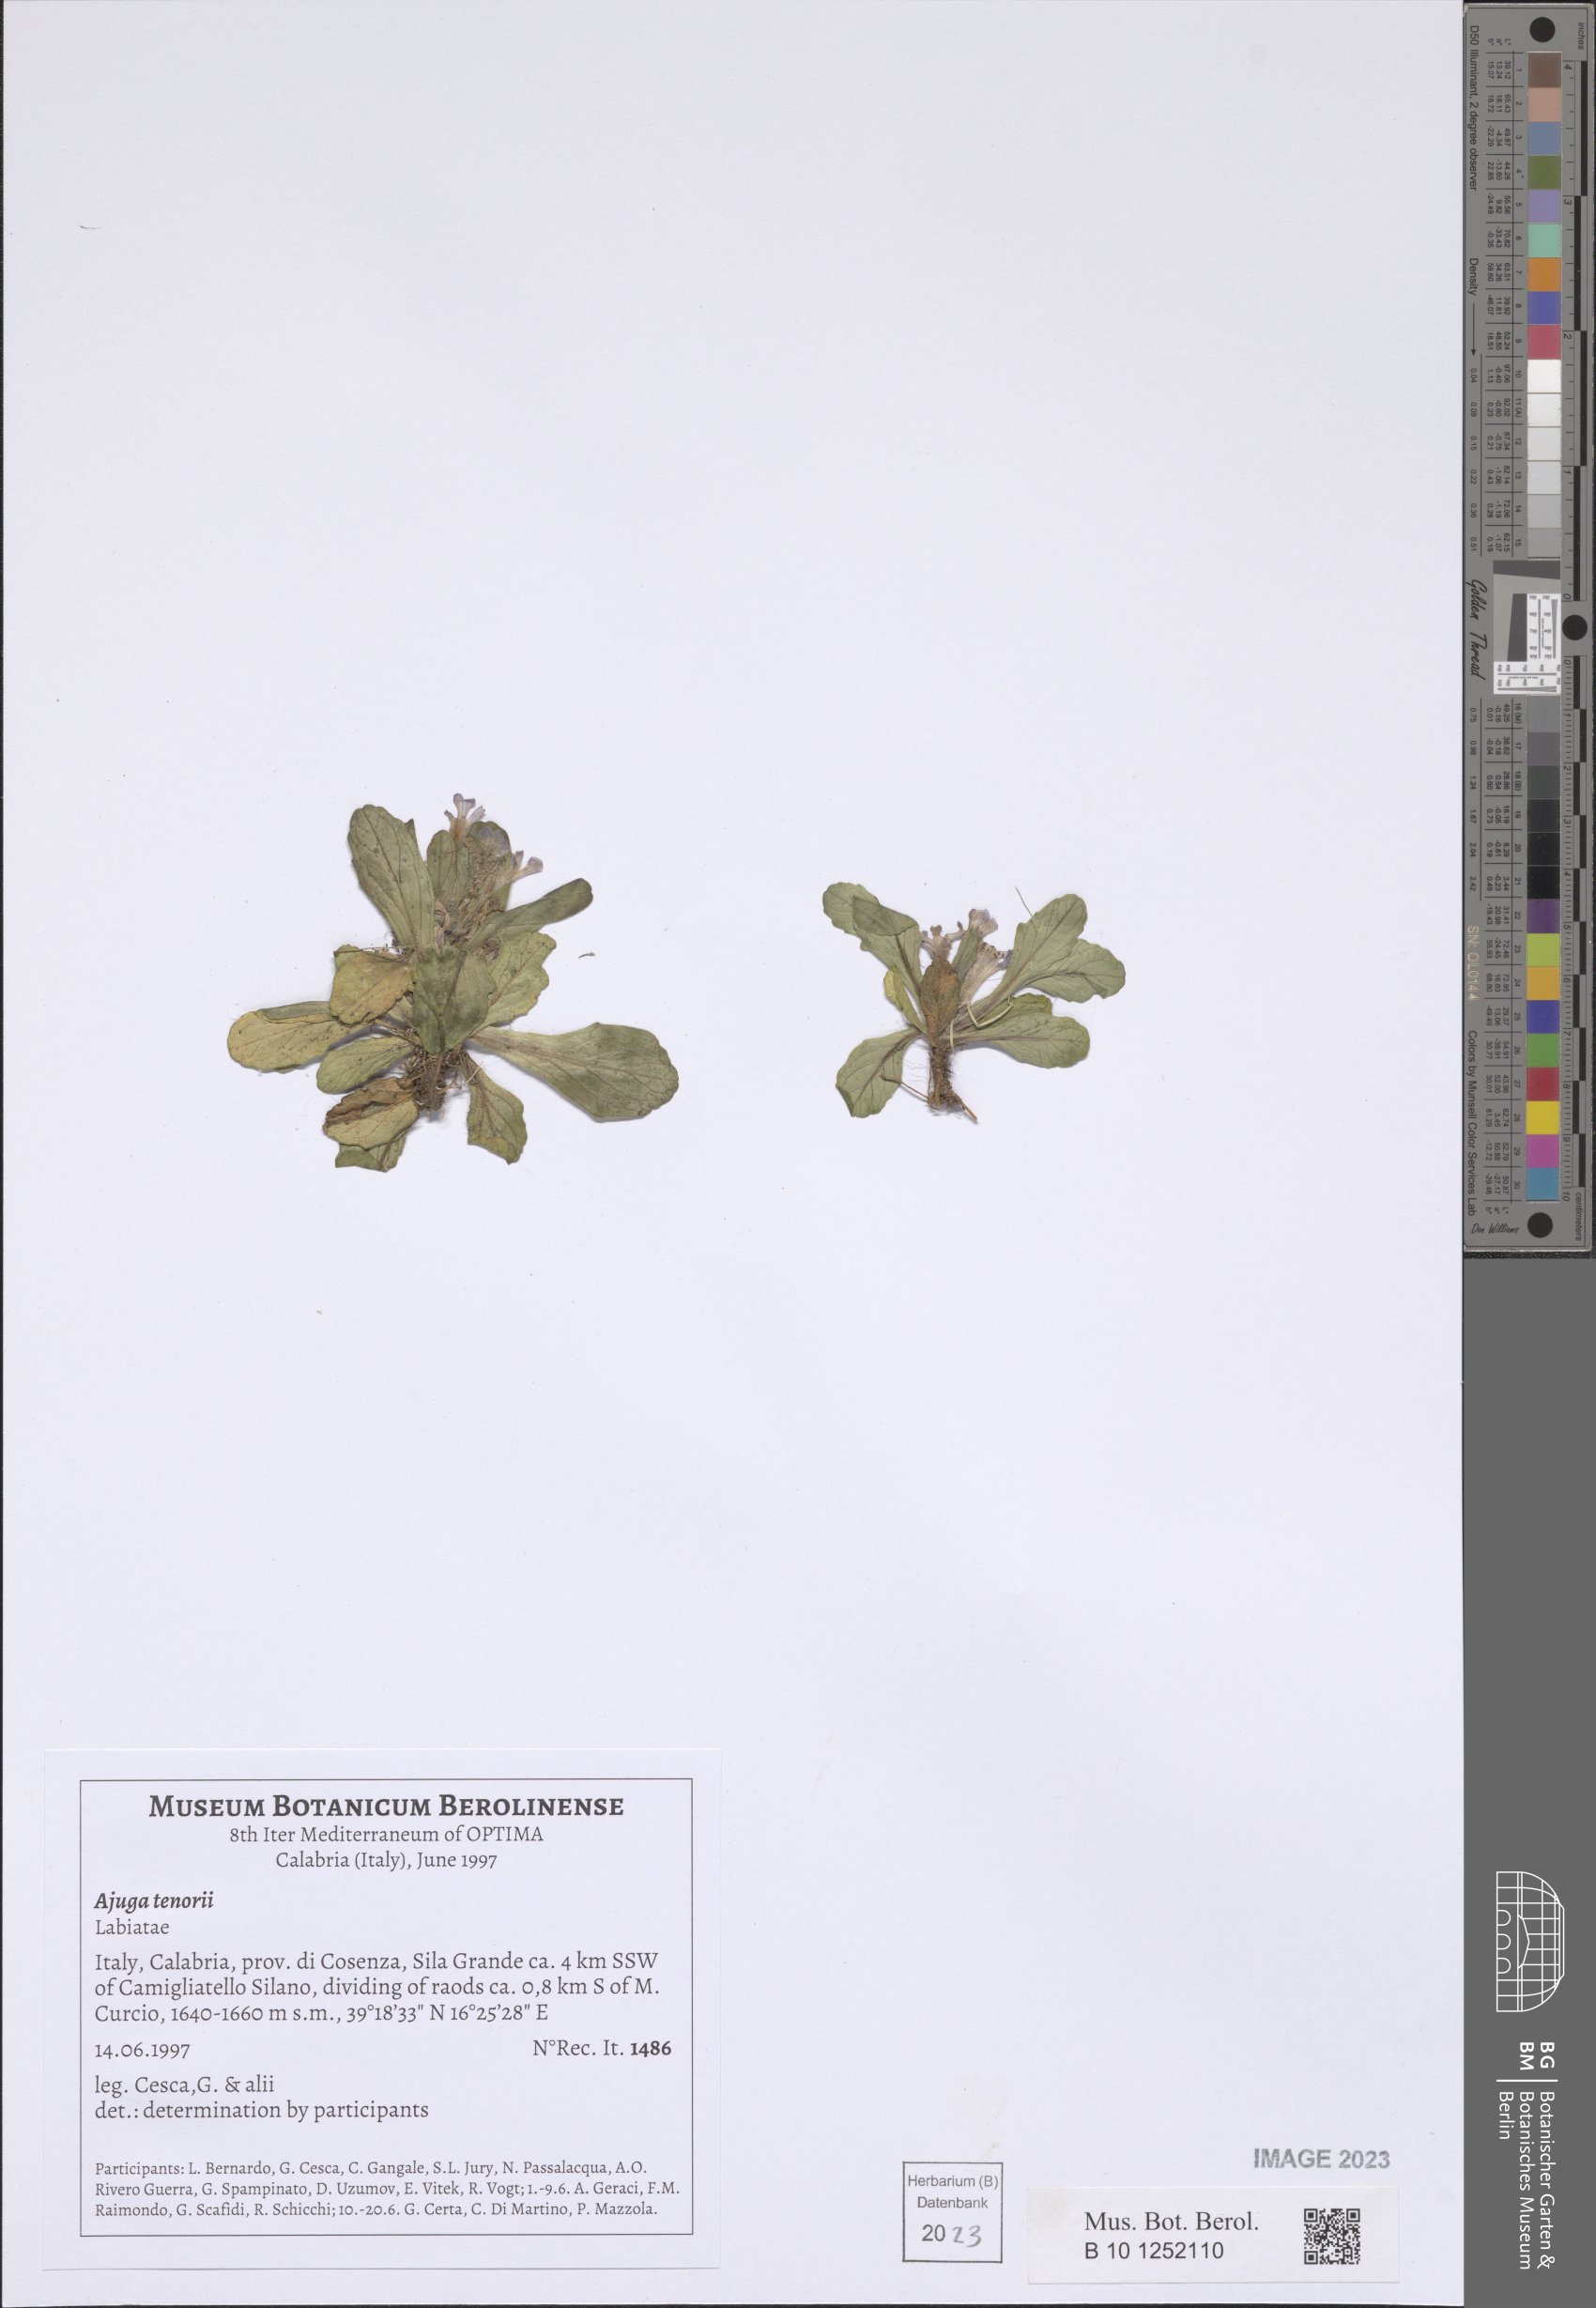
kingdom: Plantae
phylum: Tracheophyta
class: Magnoliopsida
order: Lamiales
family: Lamiaceae
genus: Ajuga
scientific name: Ajuga tenorei
